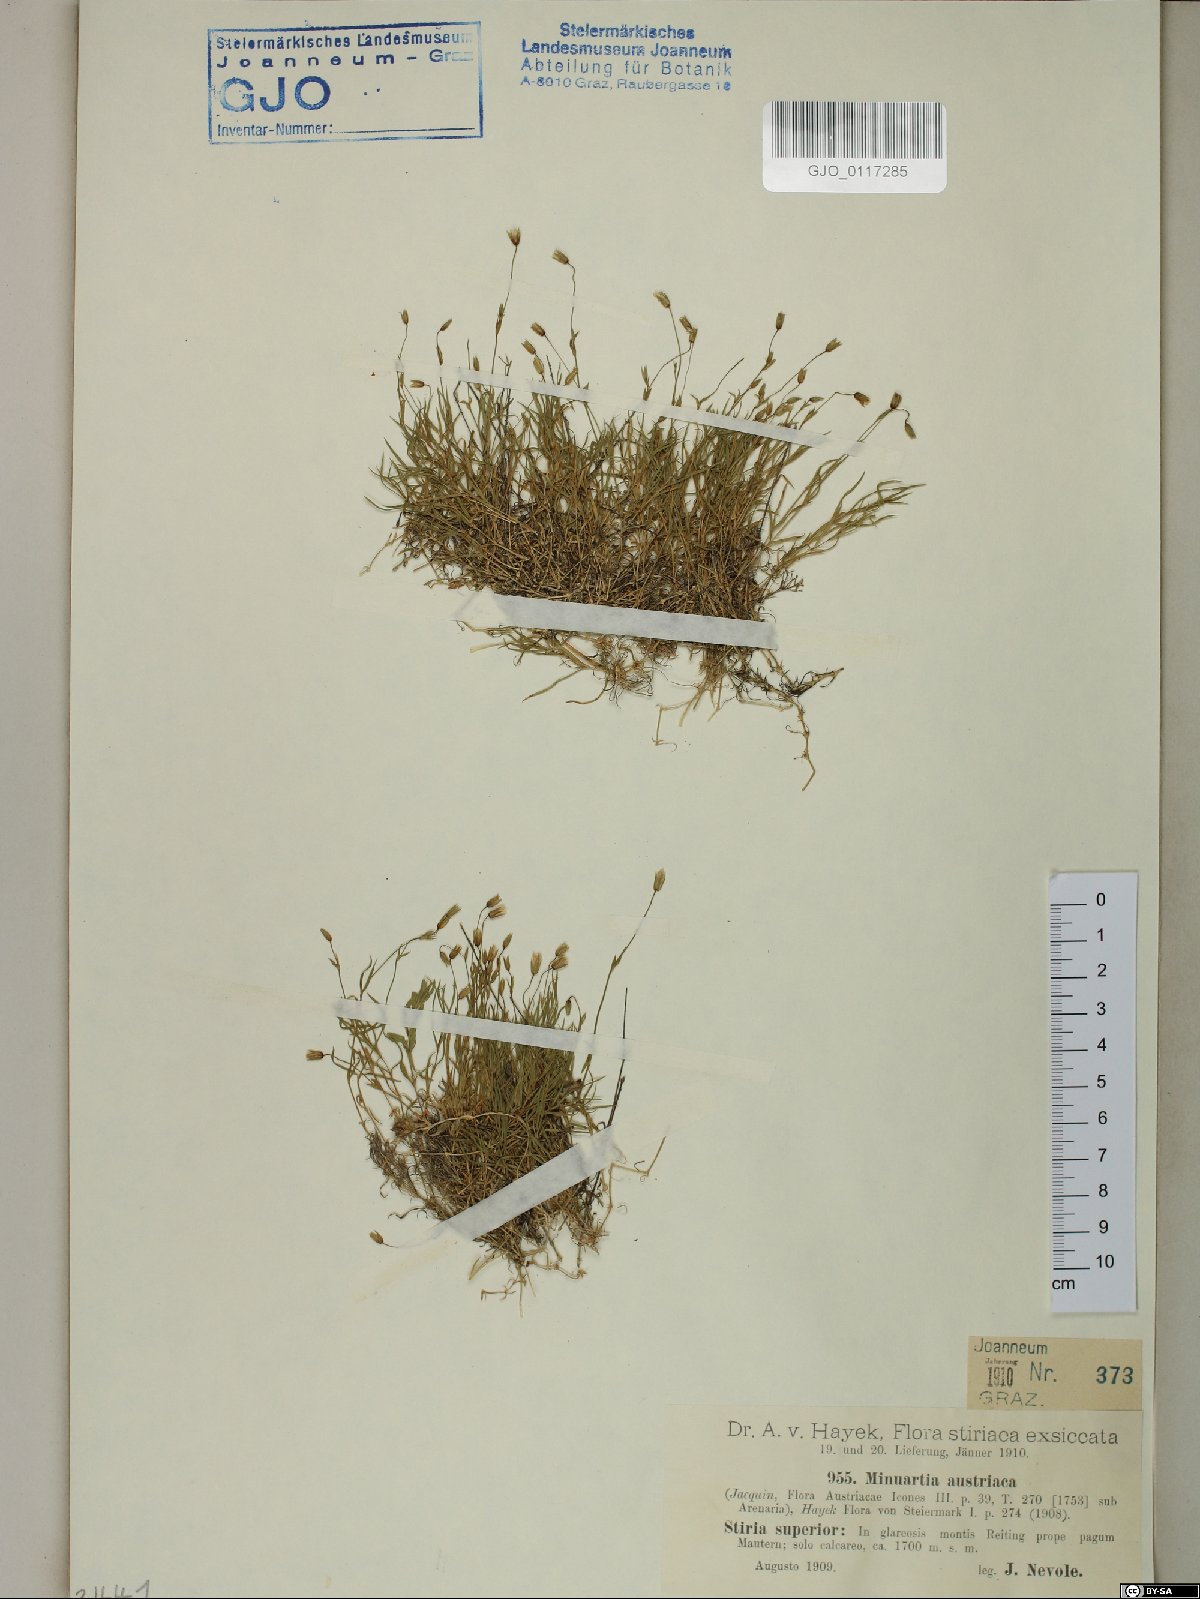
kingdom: Plantae
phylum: Tracheophyta
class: Magnoliopsida
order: Caryophyllales
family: Caryophyllaceae
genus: Sabulina
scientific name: Sabulina austriaca
